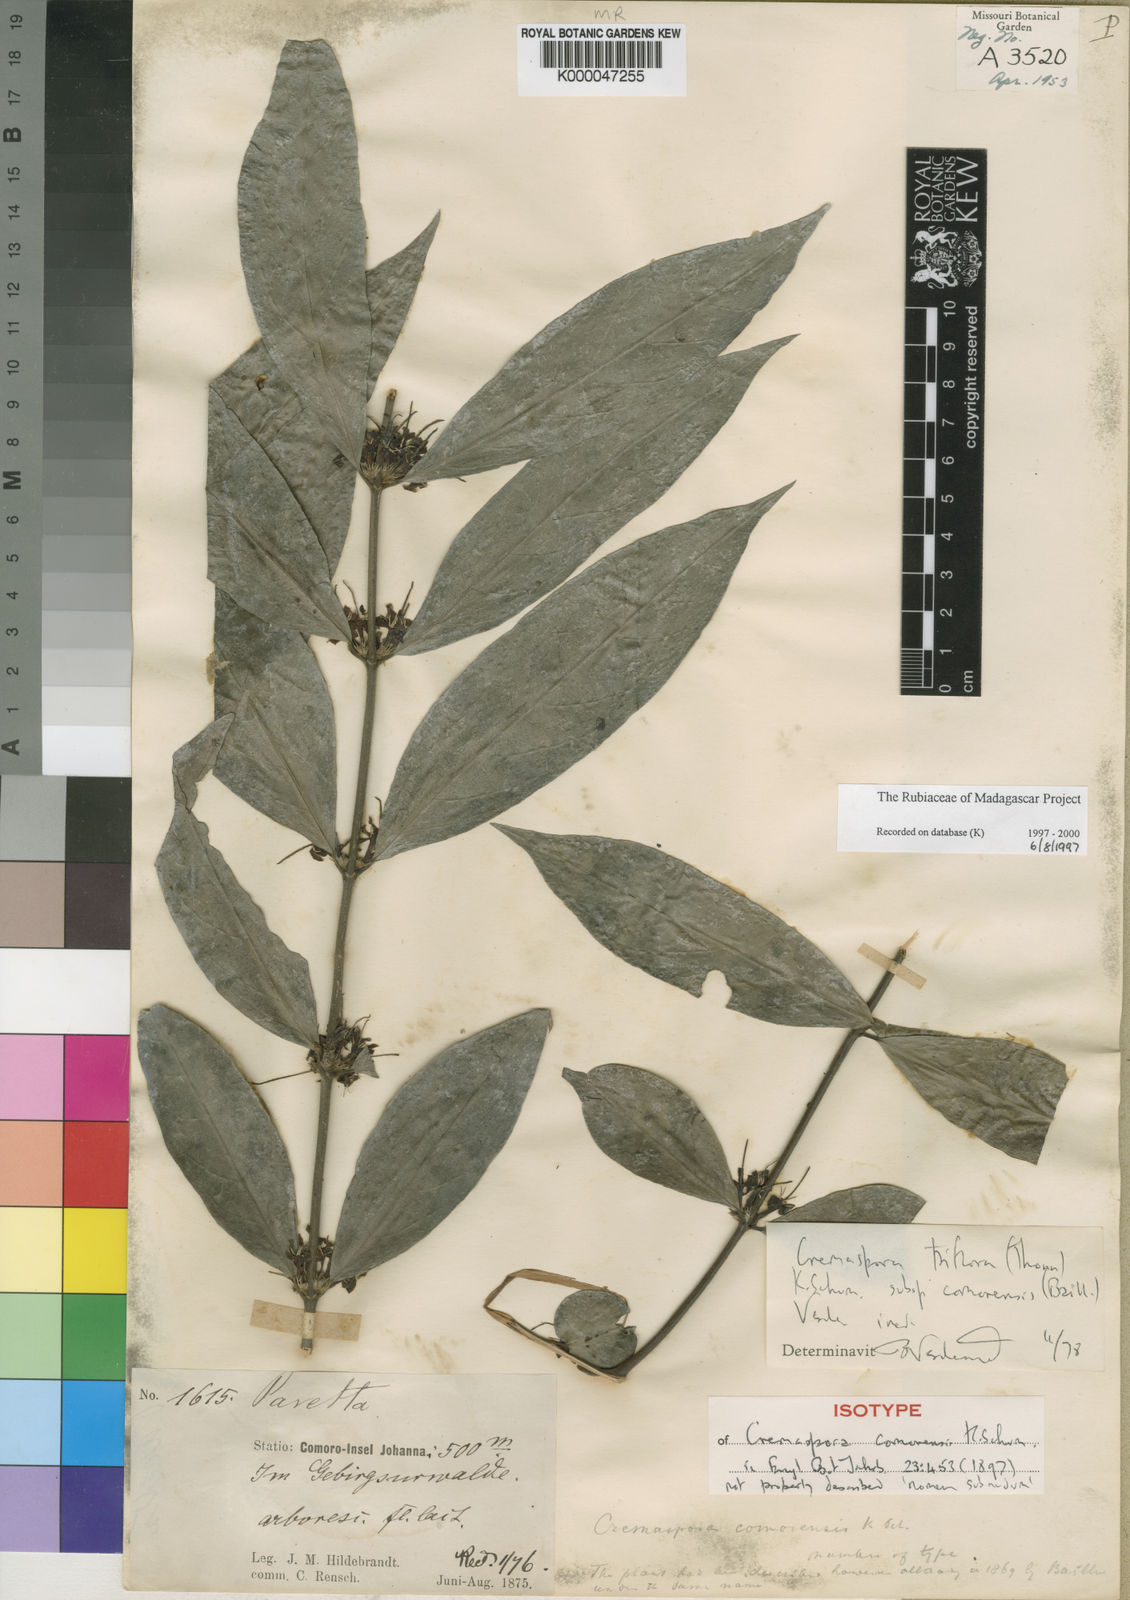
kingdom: Plantae
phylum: Tracheophyta
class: Magnoliopsida
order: Gentianales
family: Rubiaceae
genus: Cremaspora
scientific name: Cremaspora triflora
